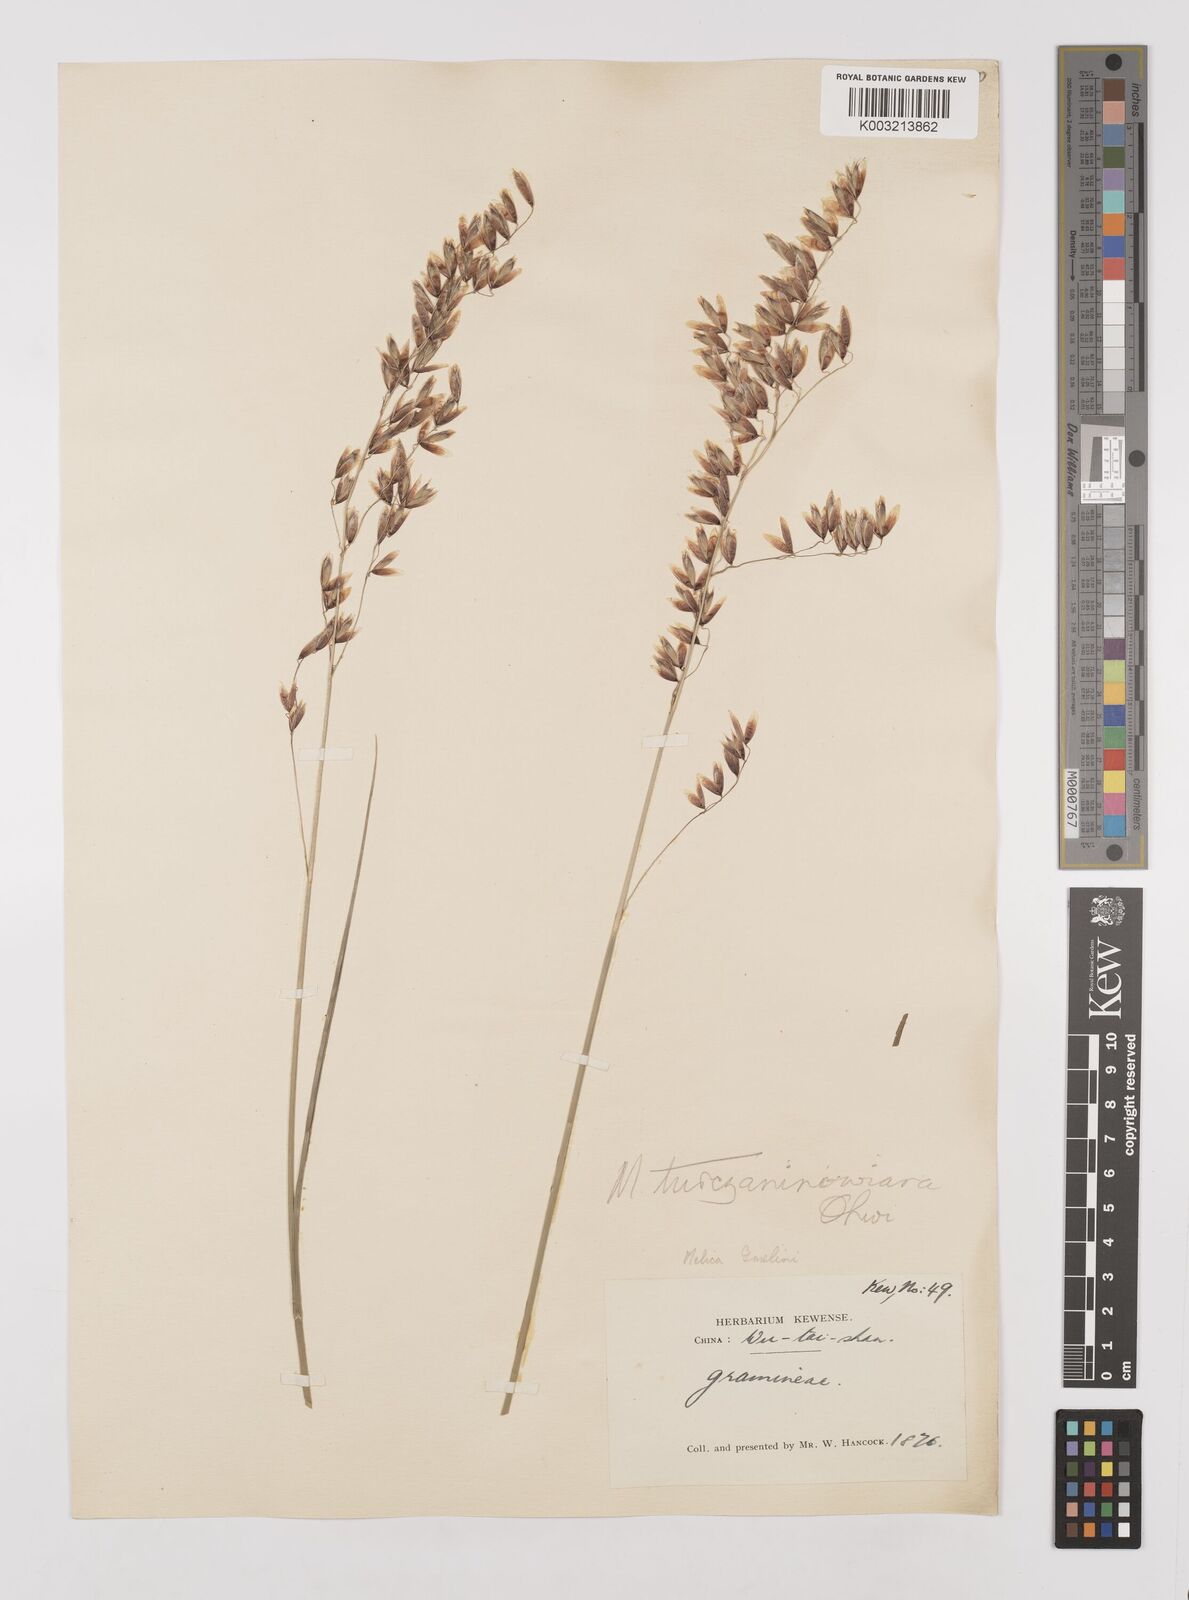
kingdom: Plantae
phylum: Tracheophyta
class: Liliopsida
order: Poales
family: Poaceae
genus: Melica
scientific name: Melica turczaninowiana
